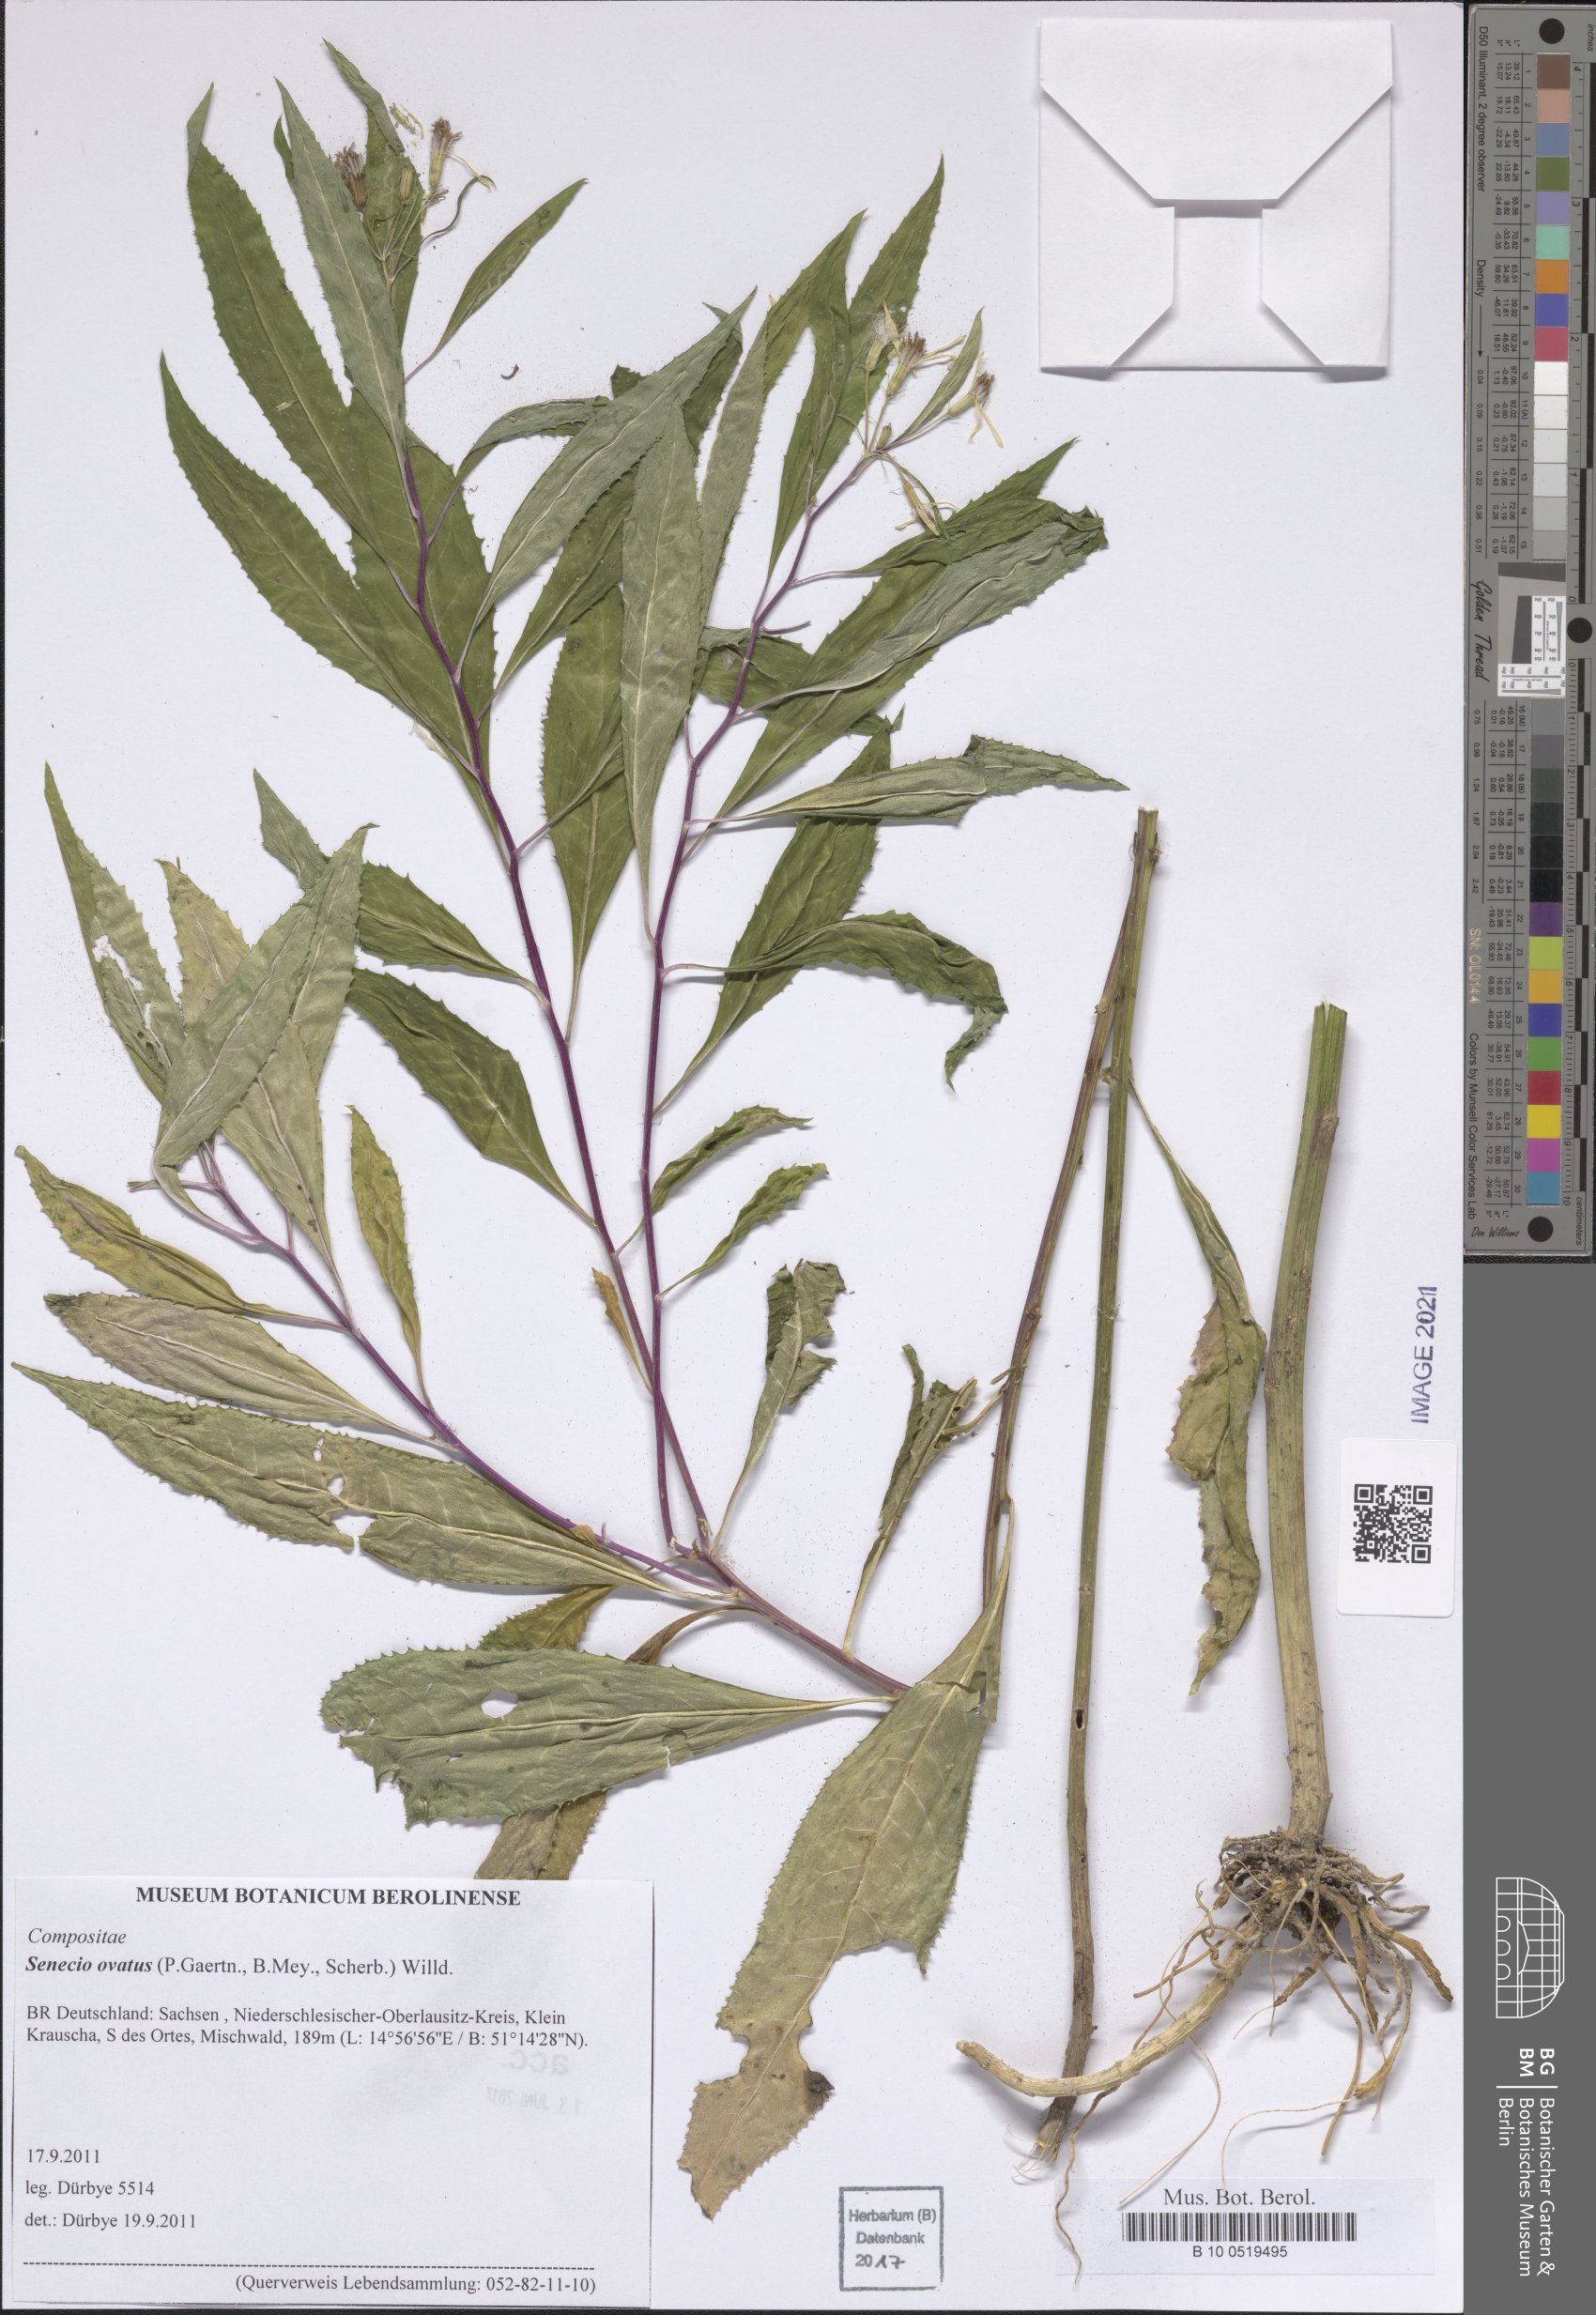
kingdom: Plantae
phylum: Tracheophyta
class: Magnoliopsida
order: Asterales
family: Asteraceae
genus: Senecio
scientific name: Senecio ovatus
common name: Wood ragwort
